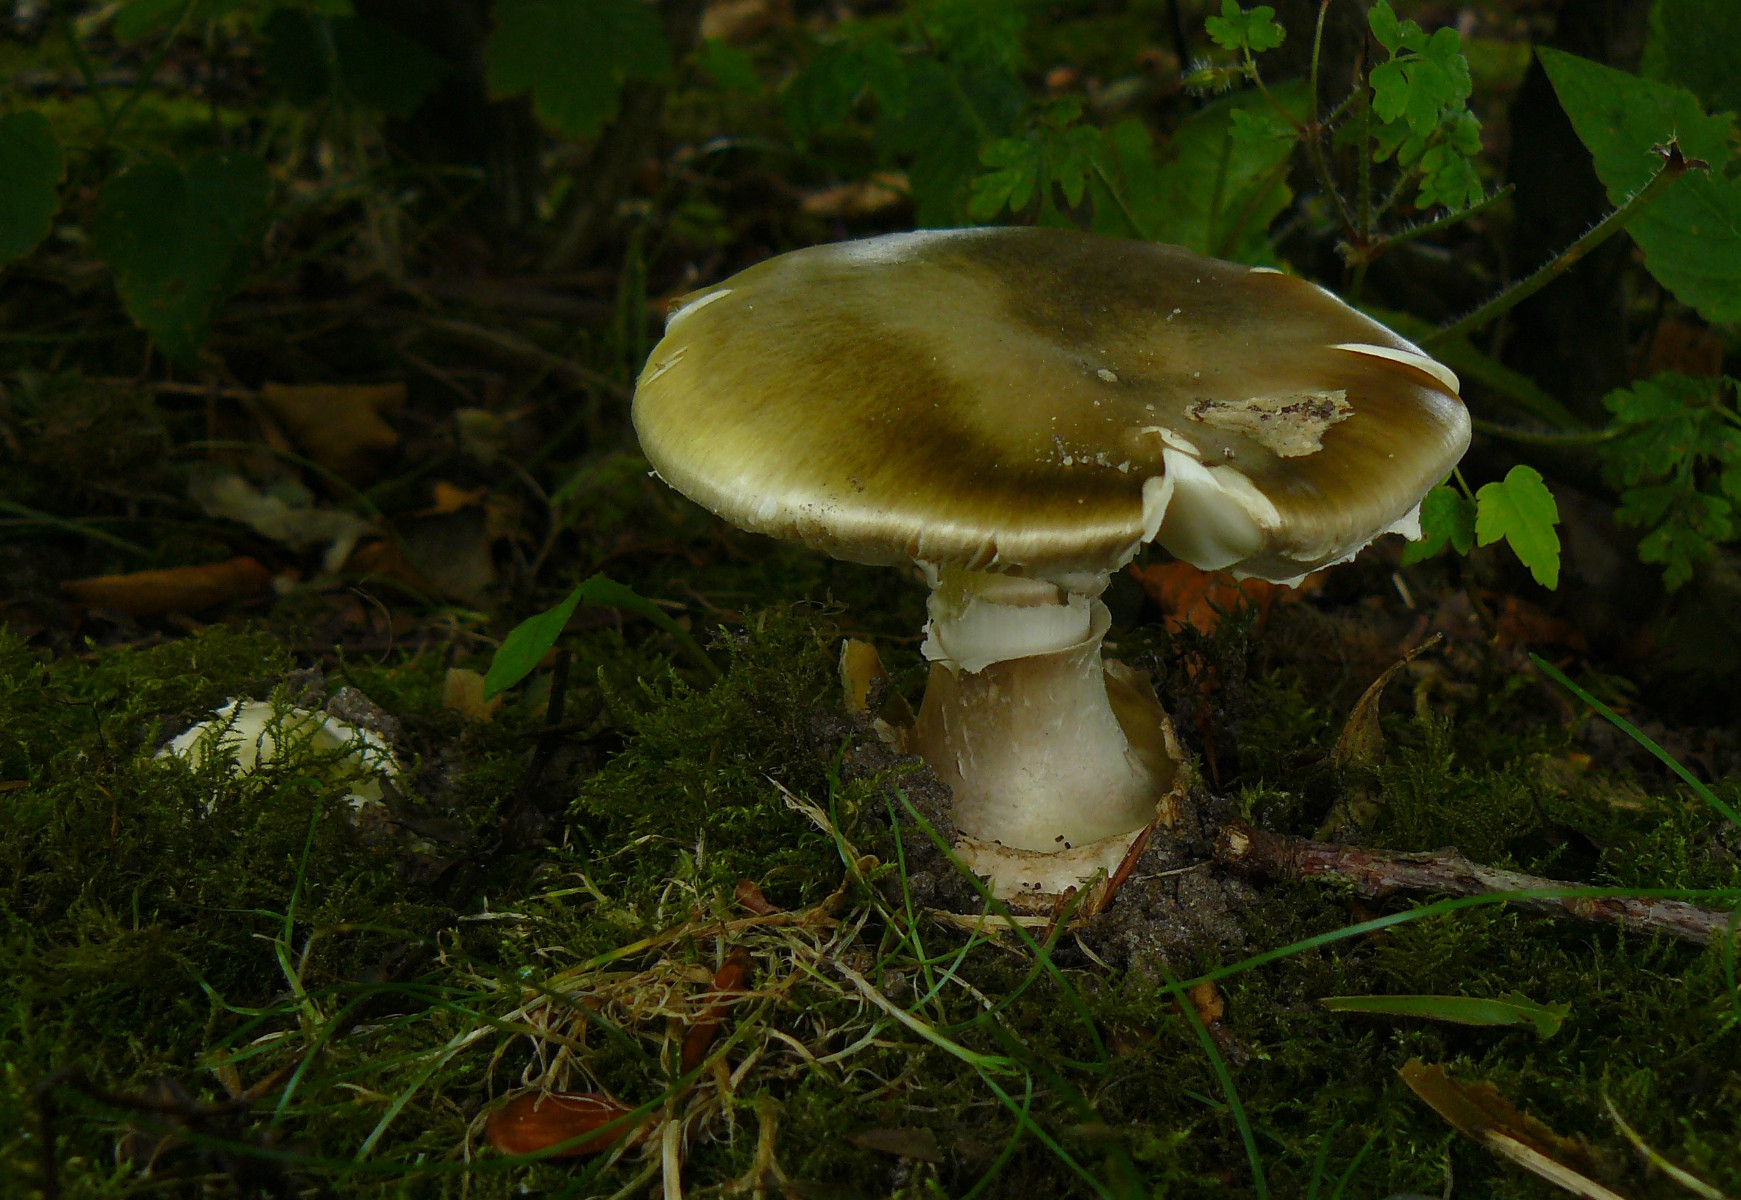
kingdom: Fungi
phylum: Basidiomycota
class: Agaricomycetes
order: Agaricales
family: Amanitaceae
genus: Amanita
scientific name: Amanita phalloides
